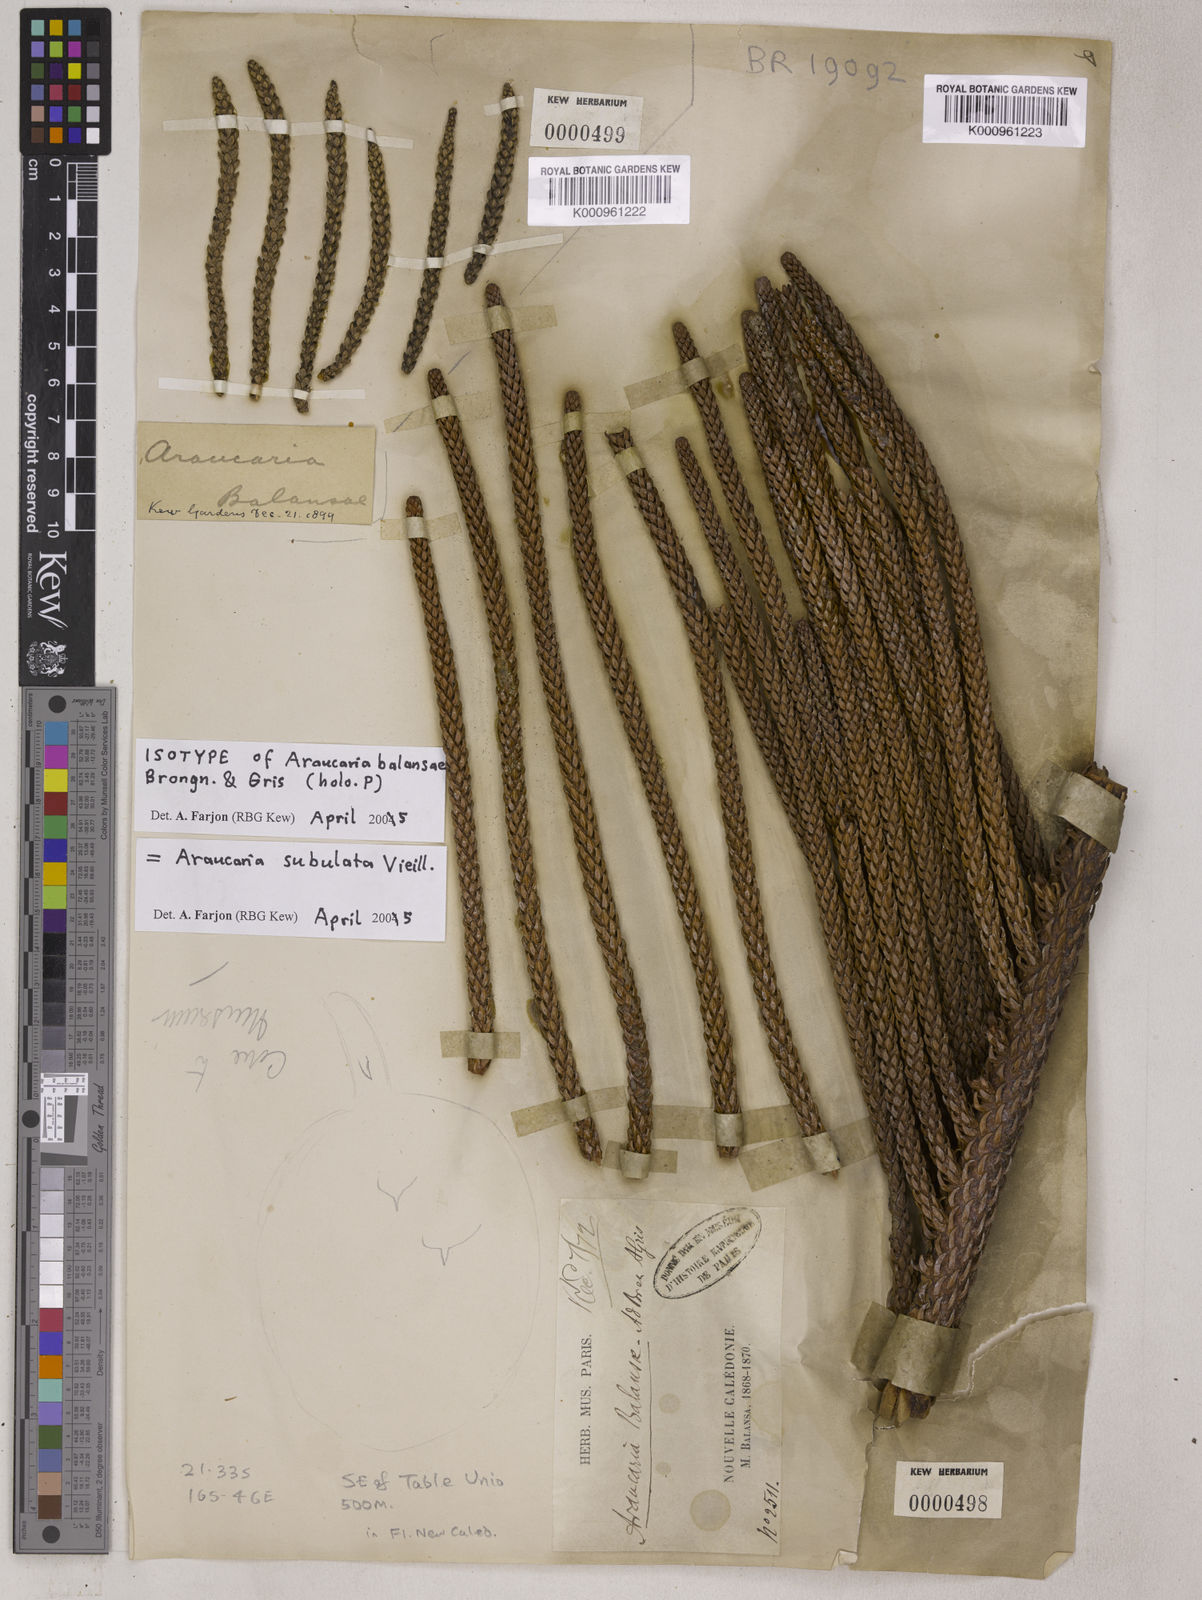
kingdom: Plantae
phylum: Tracheophyta
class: Pinopsida
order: Pinales
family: Araucariaceae
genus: Araucaria
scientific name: Araucaria subulata
